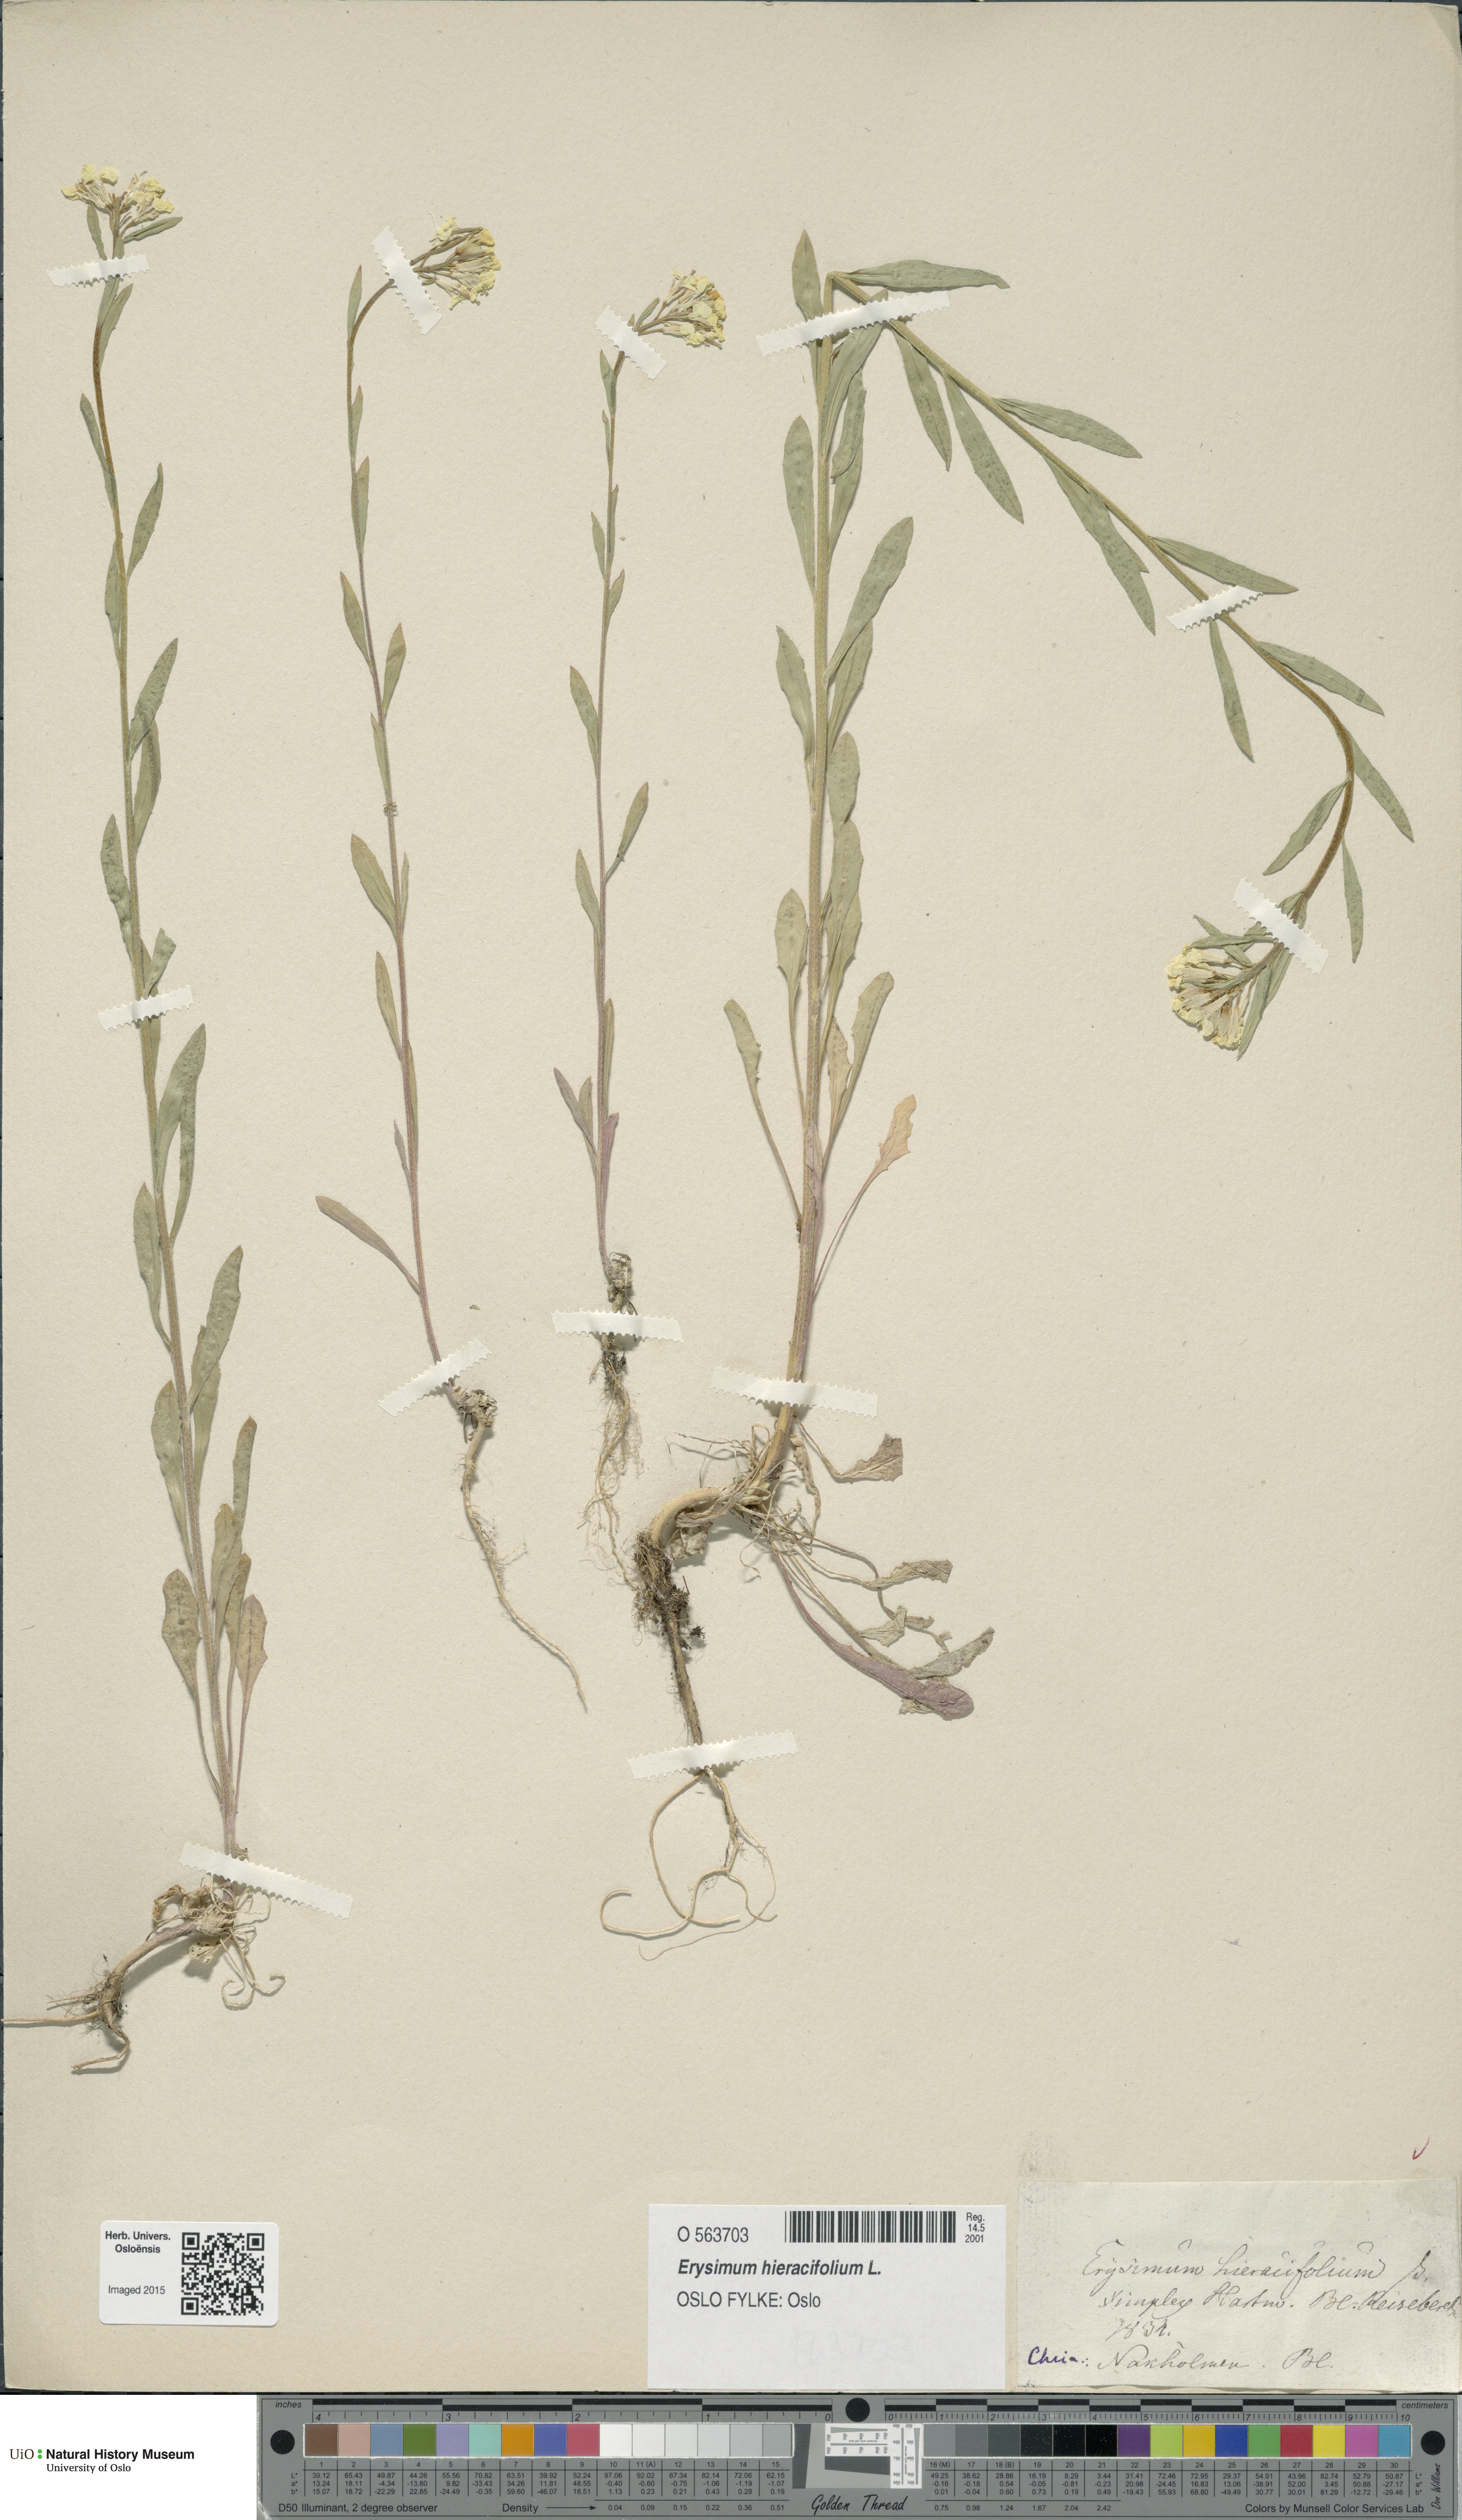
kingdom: Plantae
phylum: Tracheophyta
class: Magnoliopsida
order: Brassicales
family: Brassicaceae
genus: Erysimum
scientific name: Erysimum hieraciifolium
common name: European wallflower
